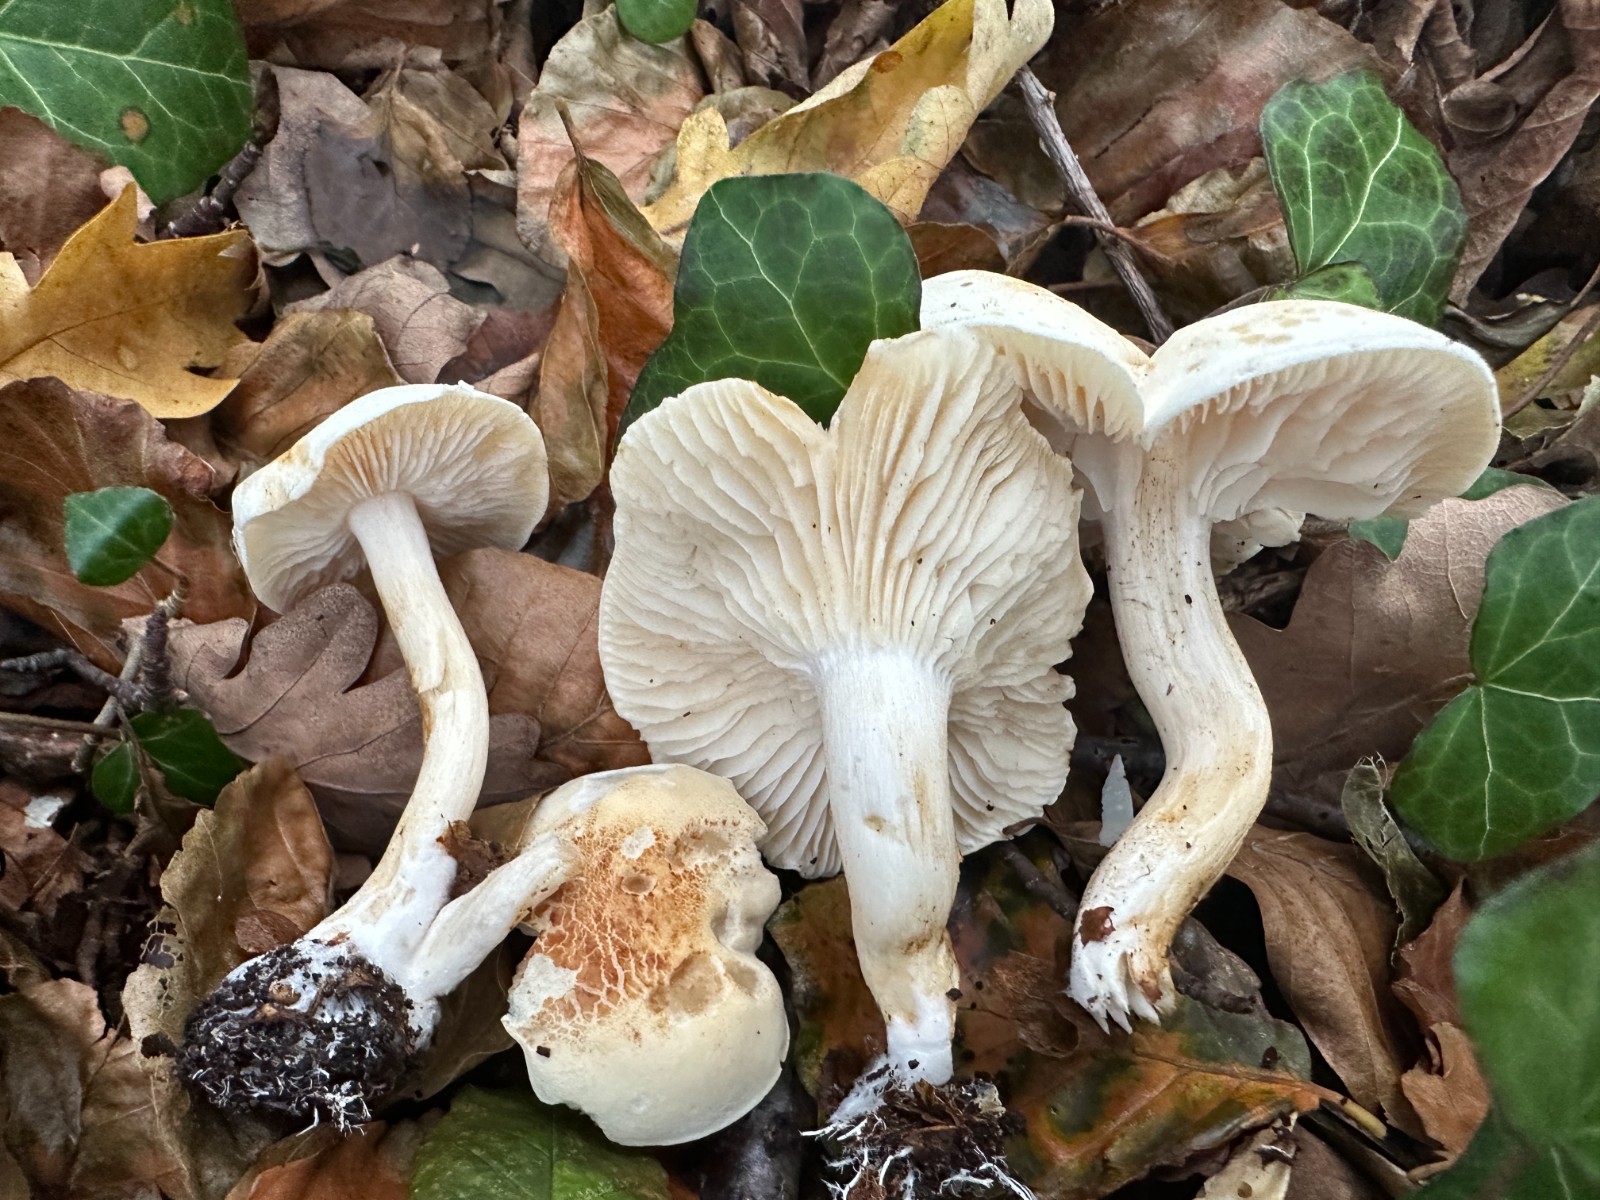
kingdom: Fungi
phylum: Basidiomycota
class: Agaricomycetes
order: Agaricales
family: Tricholomataceae
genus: Tricholoma
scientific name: Tricholoma lascivum
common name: stinkende ridderhat
